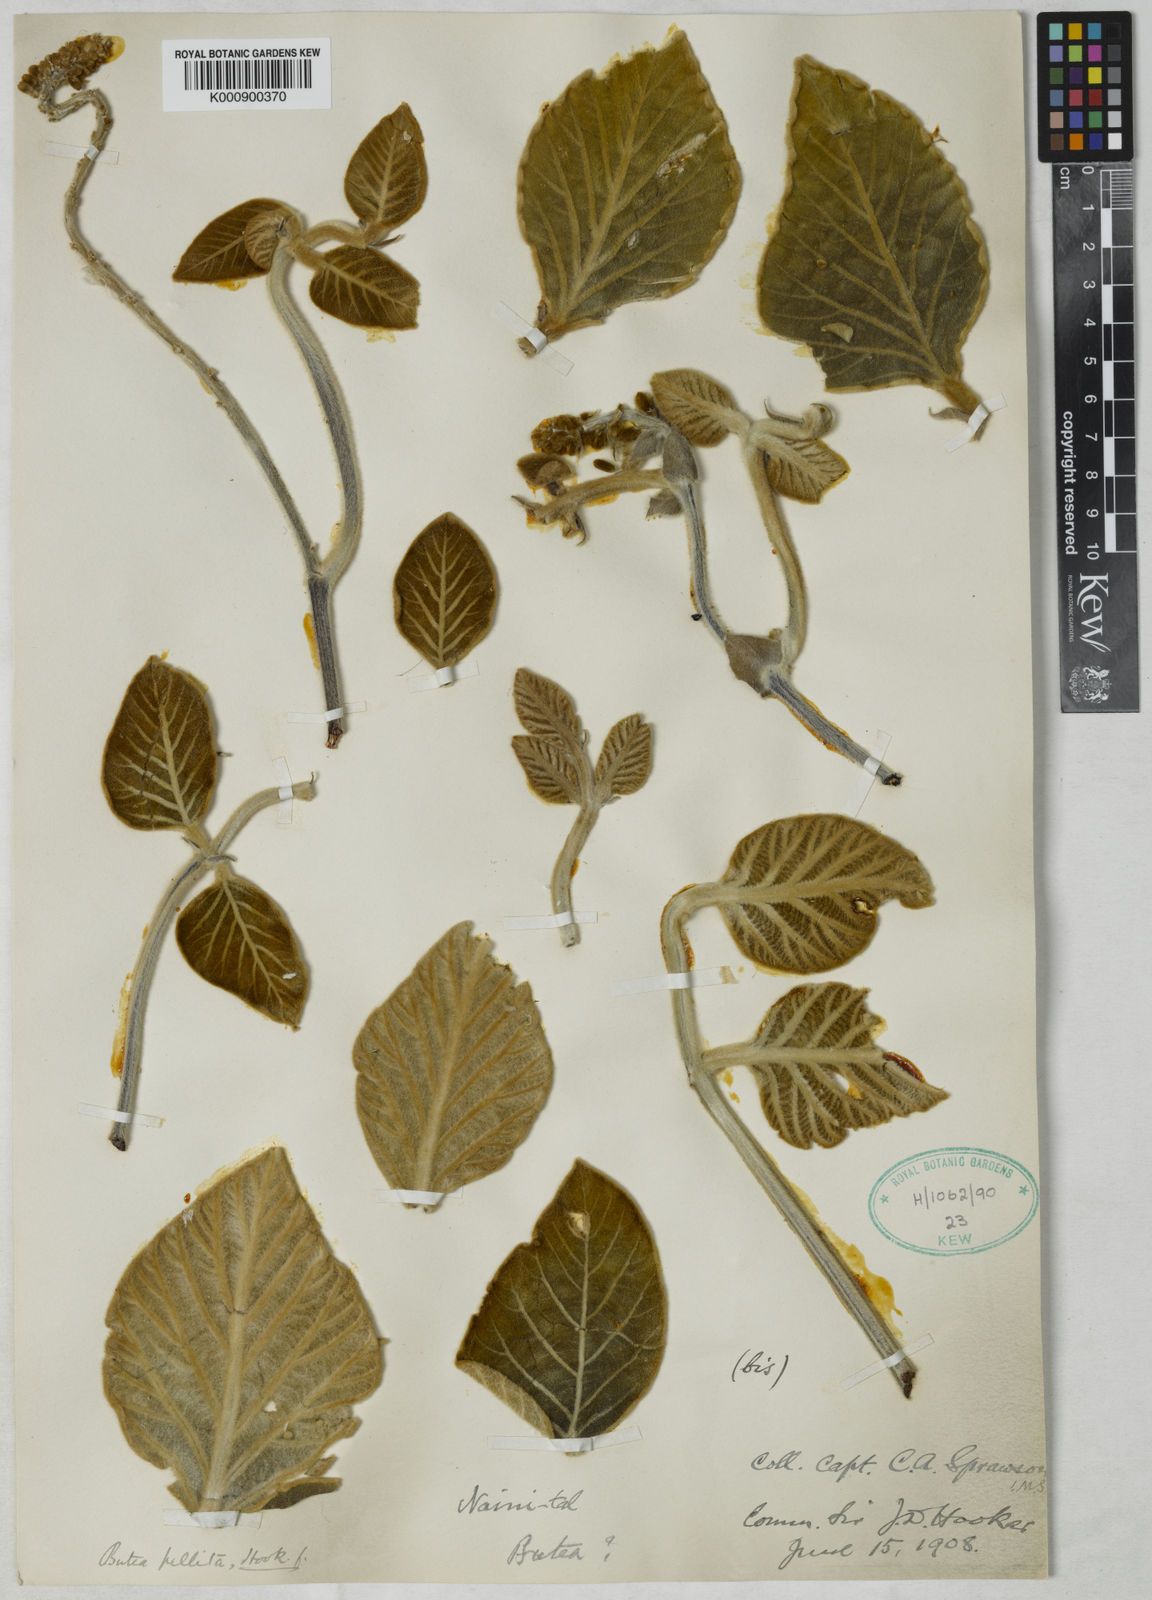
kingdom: Plantae
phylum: Tracheophyta
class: Magnoliopsida
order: Fabales
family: Fabaceae
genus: Paracalyx
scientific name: Paracalyx
